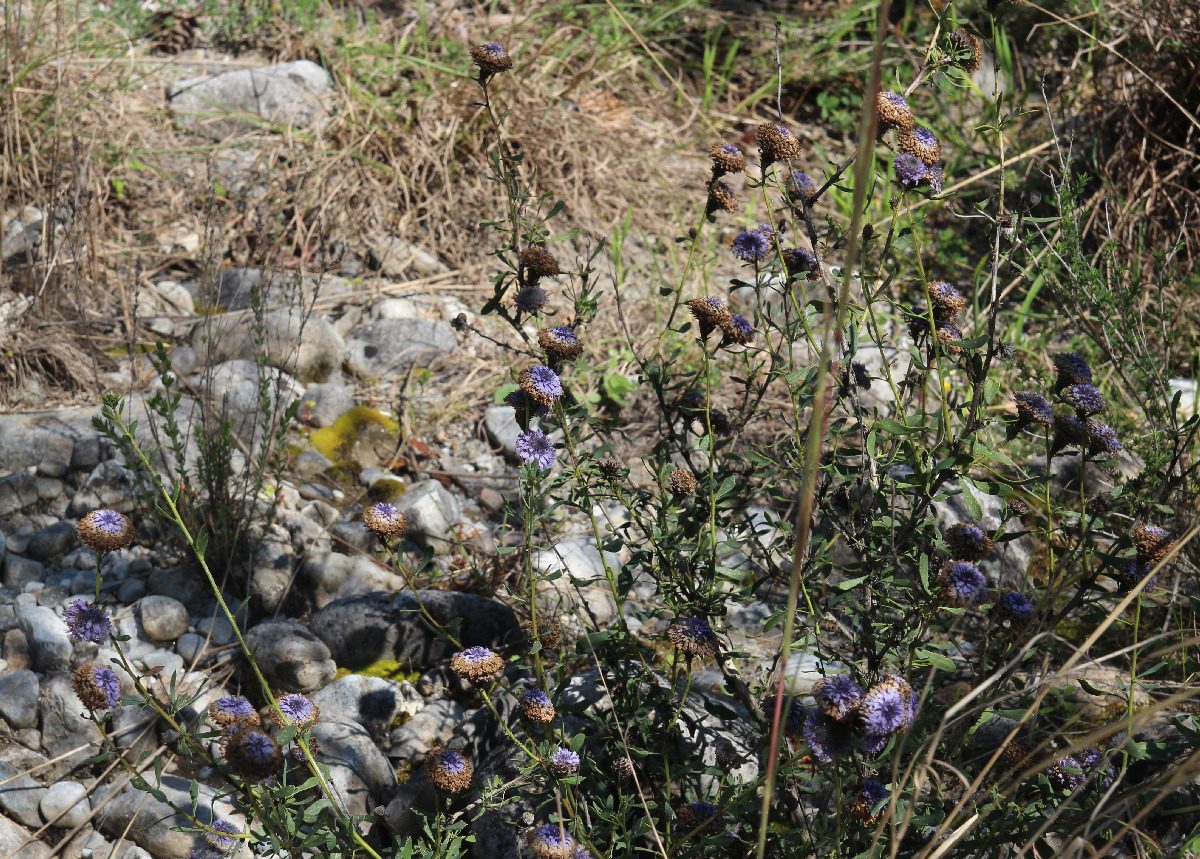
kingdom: Plantae
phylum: Tracheophyta
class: Magnoliopsida
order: Lamiales
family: Plantaginaceae
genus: Globularia
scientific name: Globularia alypum
